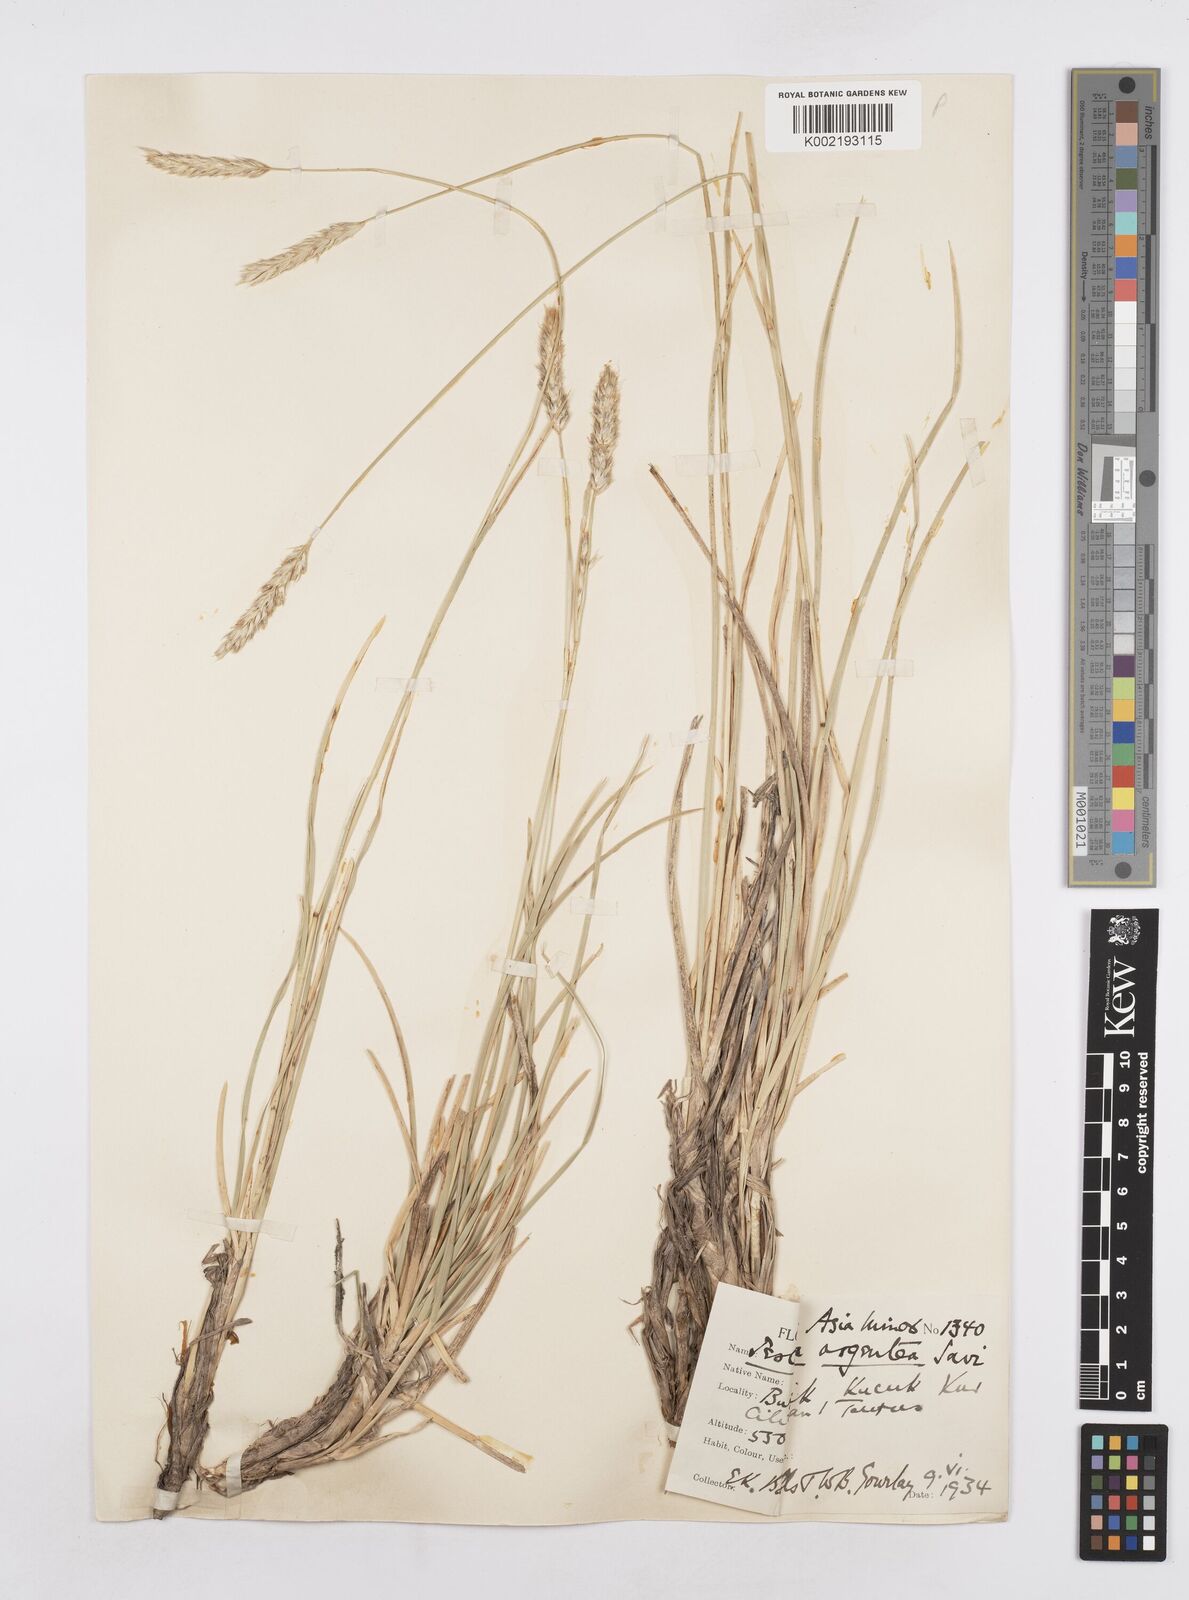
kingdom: Plantae
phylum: Tracheophyta
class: Liliopsida
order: Poales
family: Poaceae
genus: Sesleria
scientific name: Sesleria argentea
